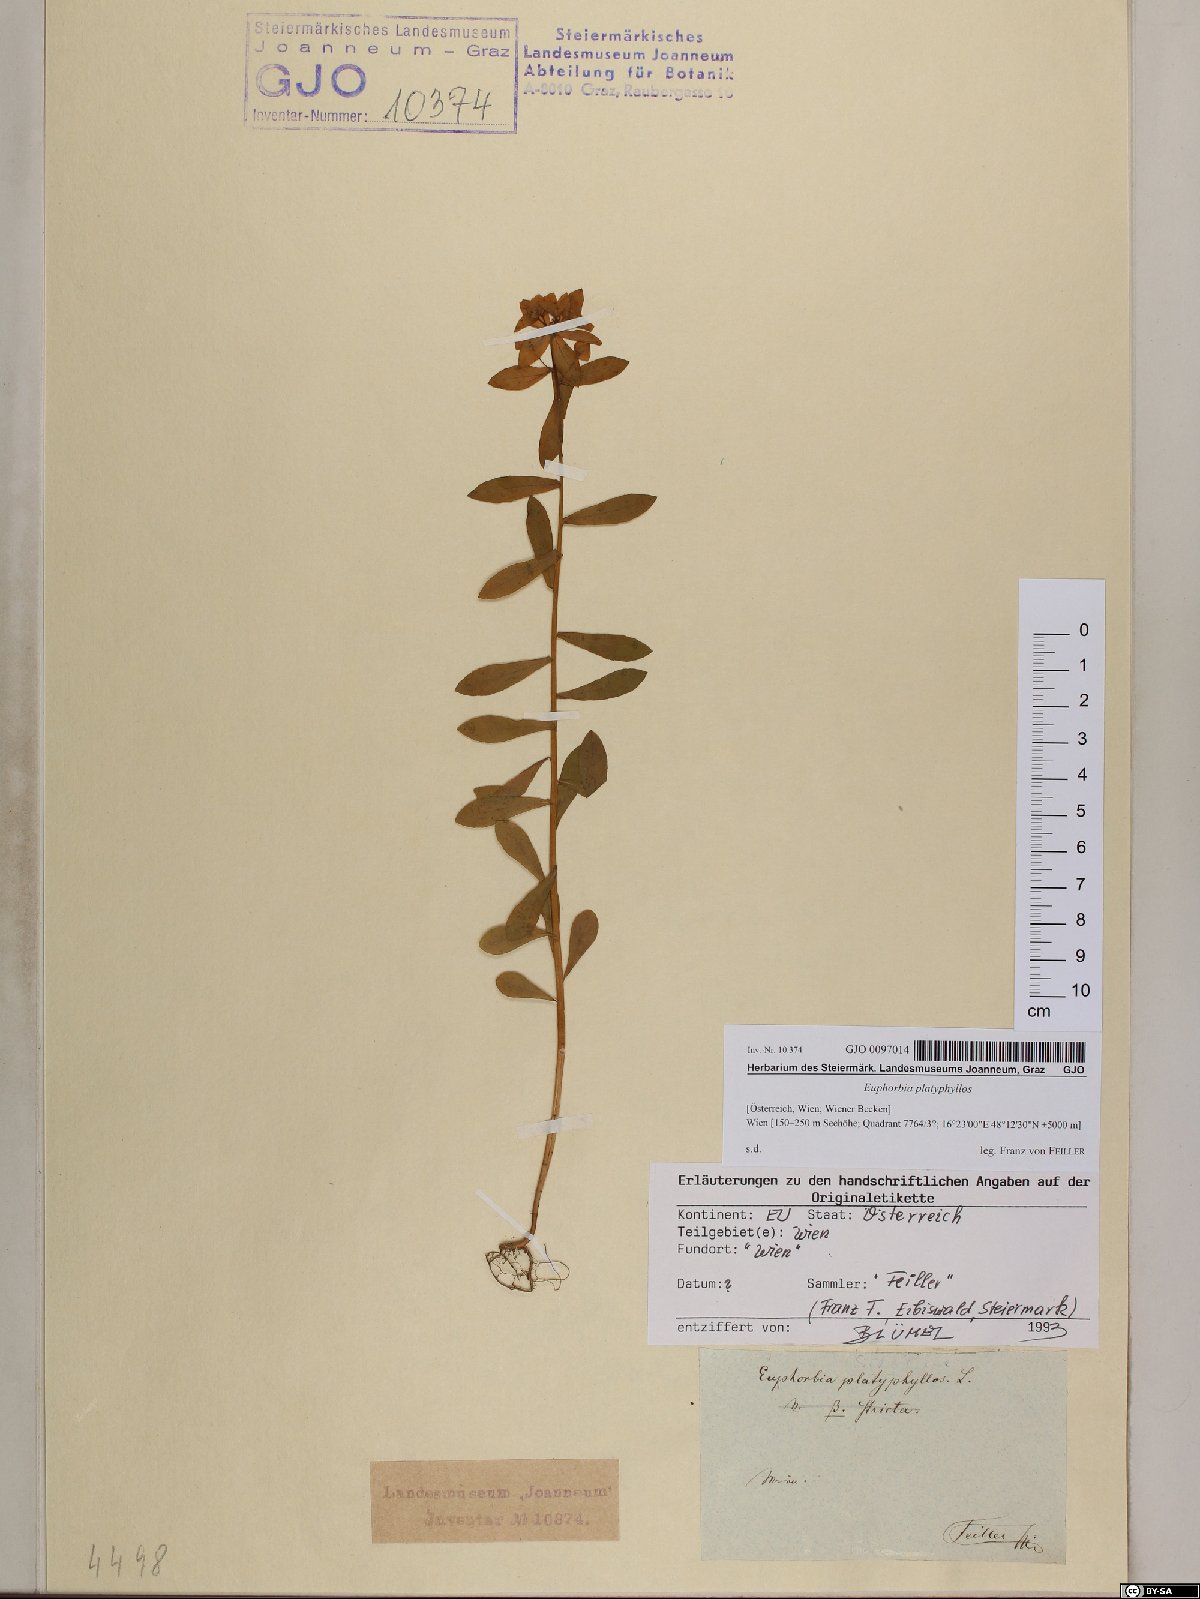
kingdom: Plantae
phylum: Tracheophyta
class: Magnoliopsida
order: Malpighiales
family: Euphorbiaceae
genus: Euphorbia
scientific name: Euphorbia platyphyllos
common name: Broad-leaved spurge
